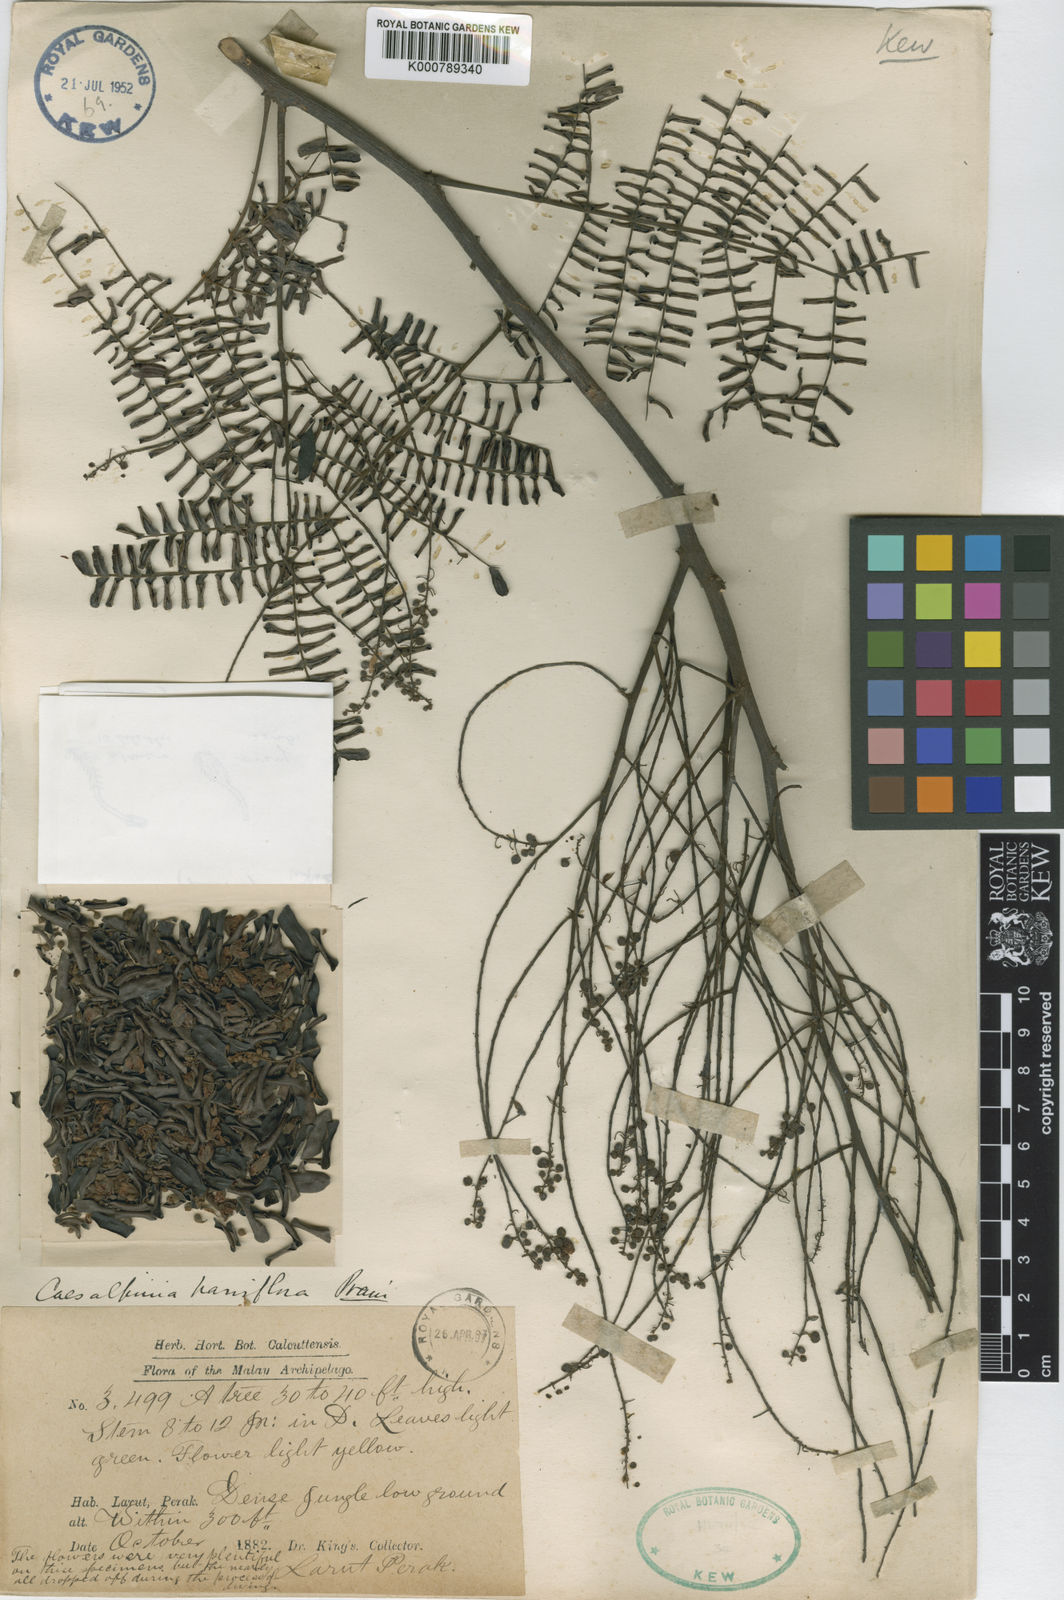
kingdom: Plantae
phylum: Tracheophyta
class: Magnoliopsida
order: Fabales
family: Fabaceae
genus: Caesalpinia
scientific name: Caesalpinia
